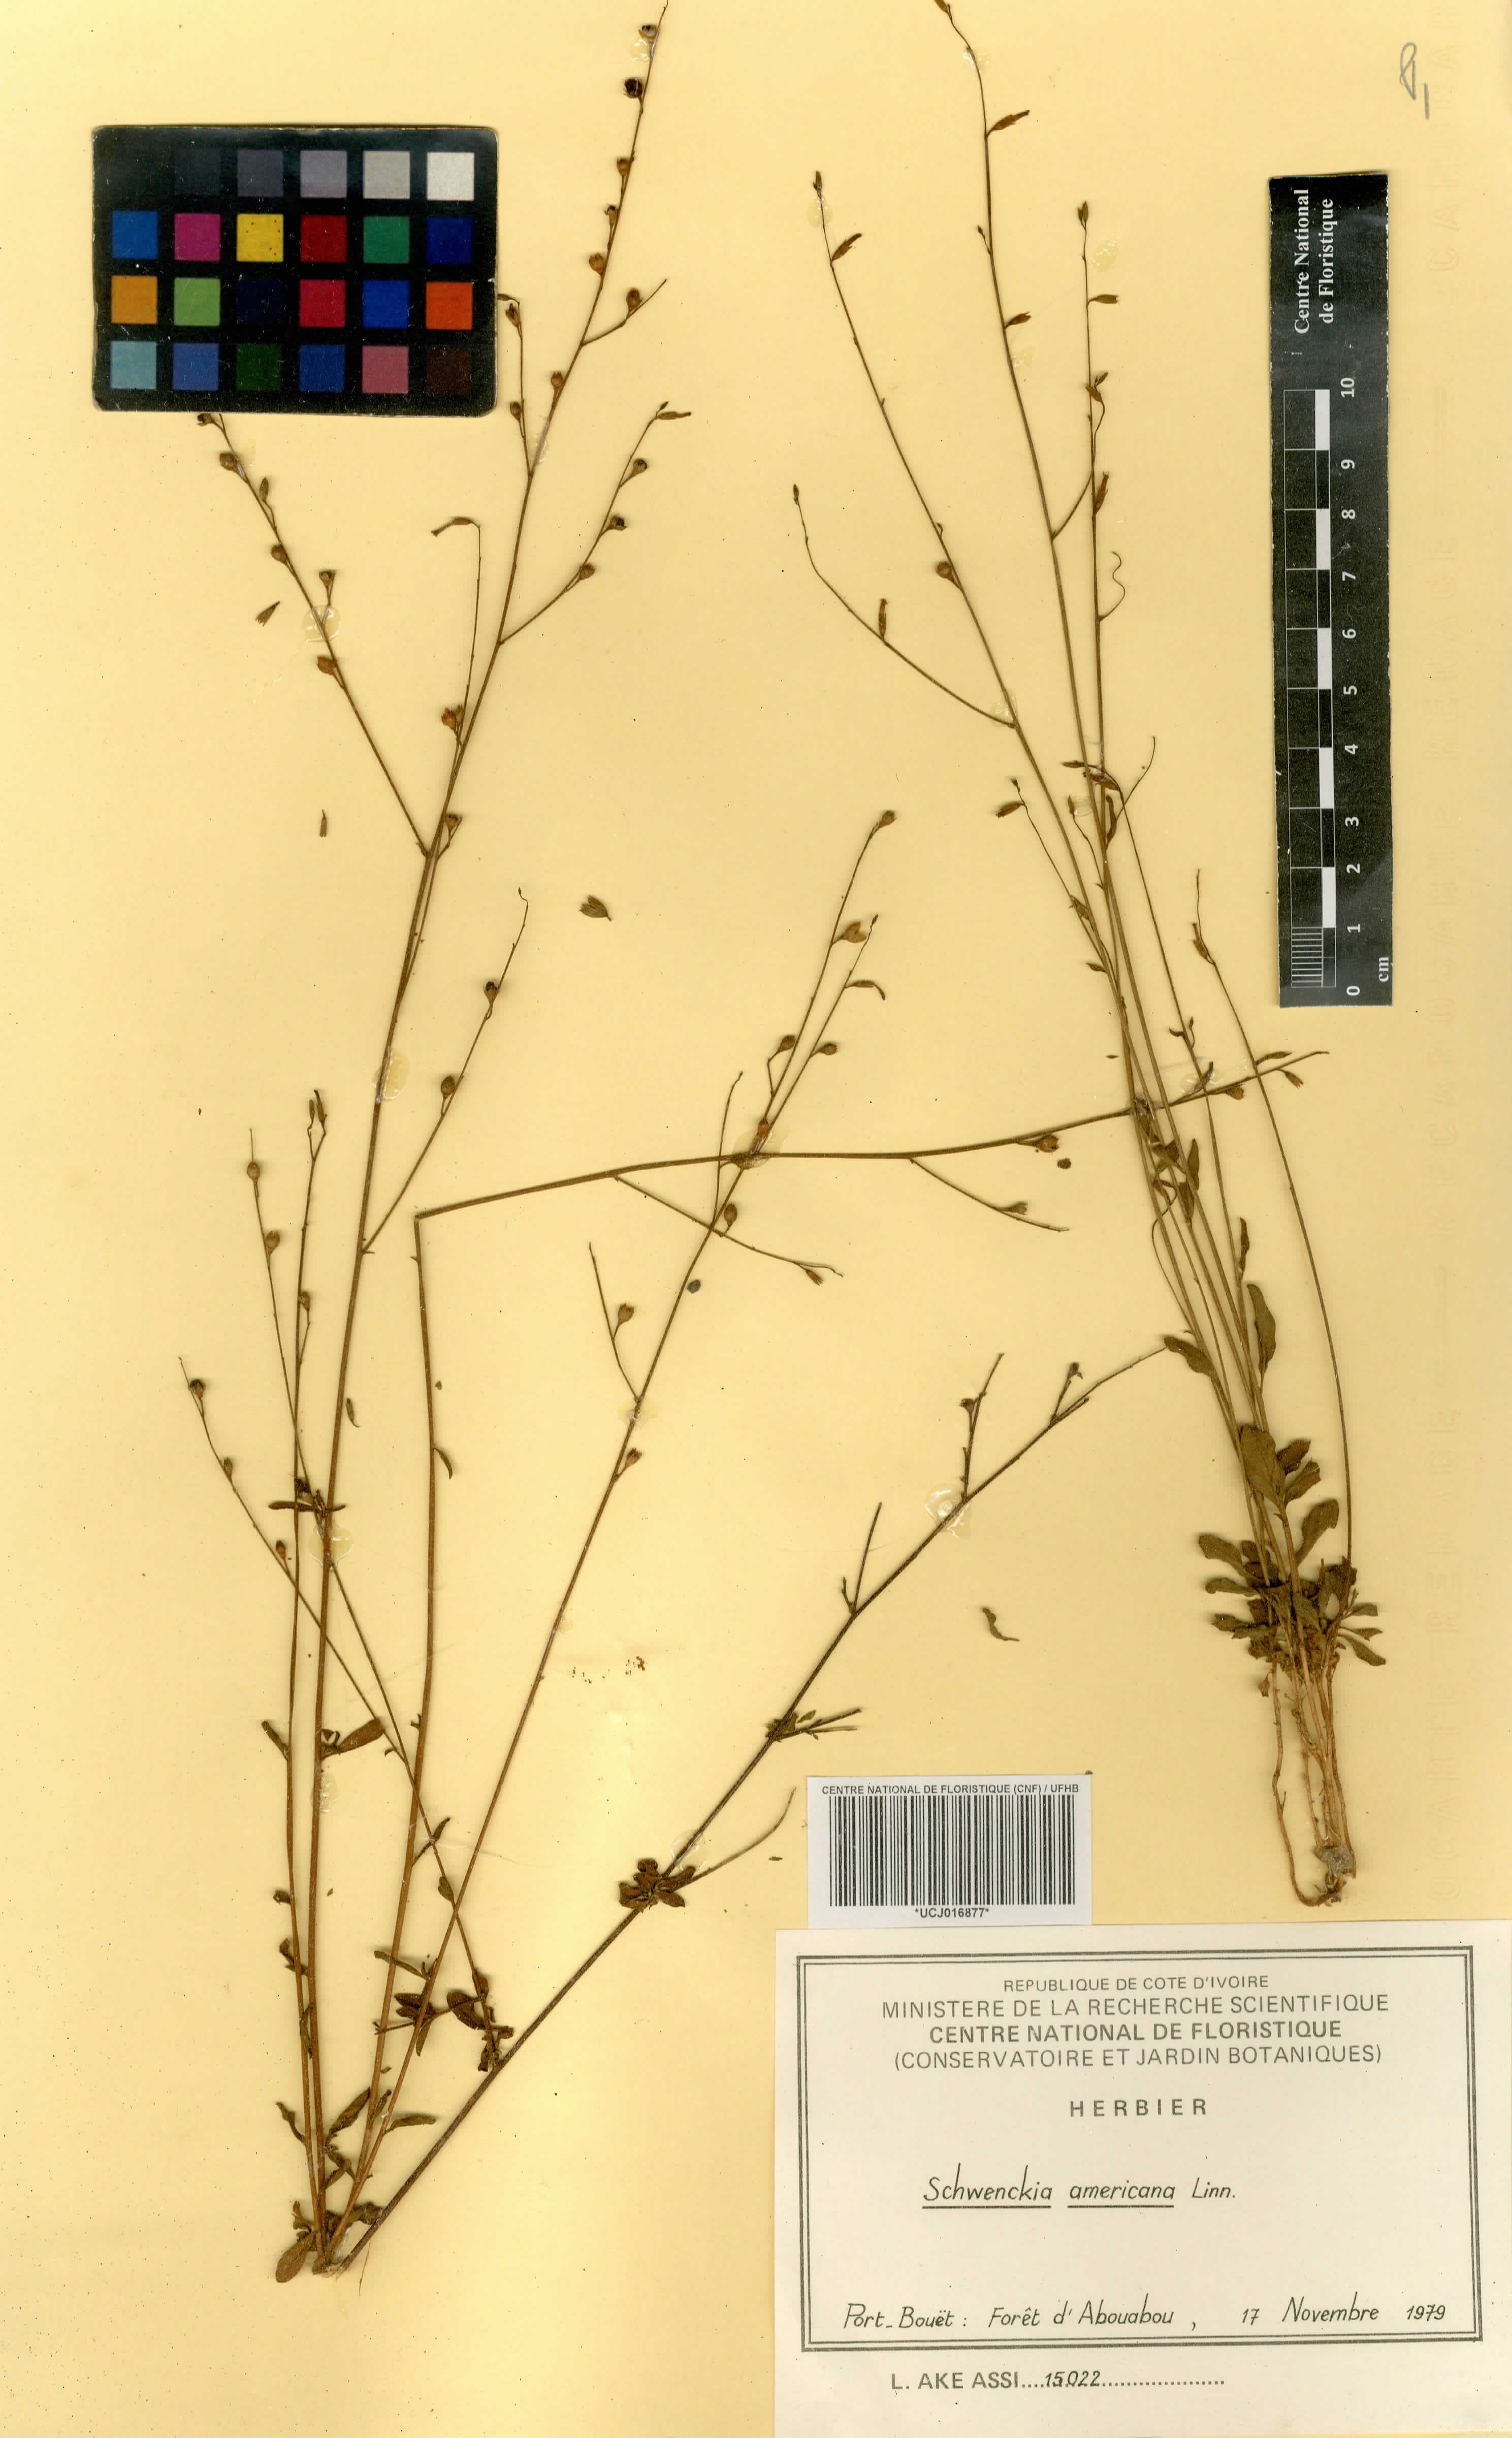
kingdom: Plantae
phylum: Tracheophyta
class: Magnoliopsida
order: Solanales
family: Solanaceae
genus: Schwenckia
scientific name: Schwenckia americana
